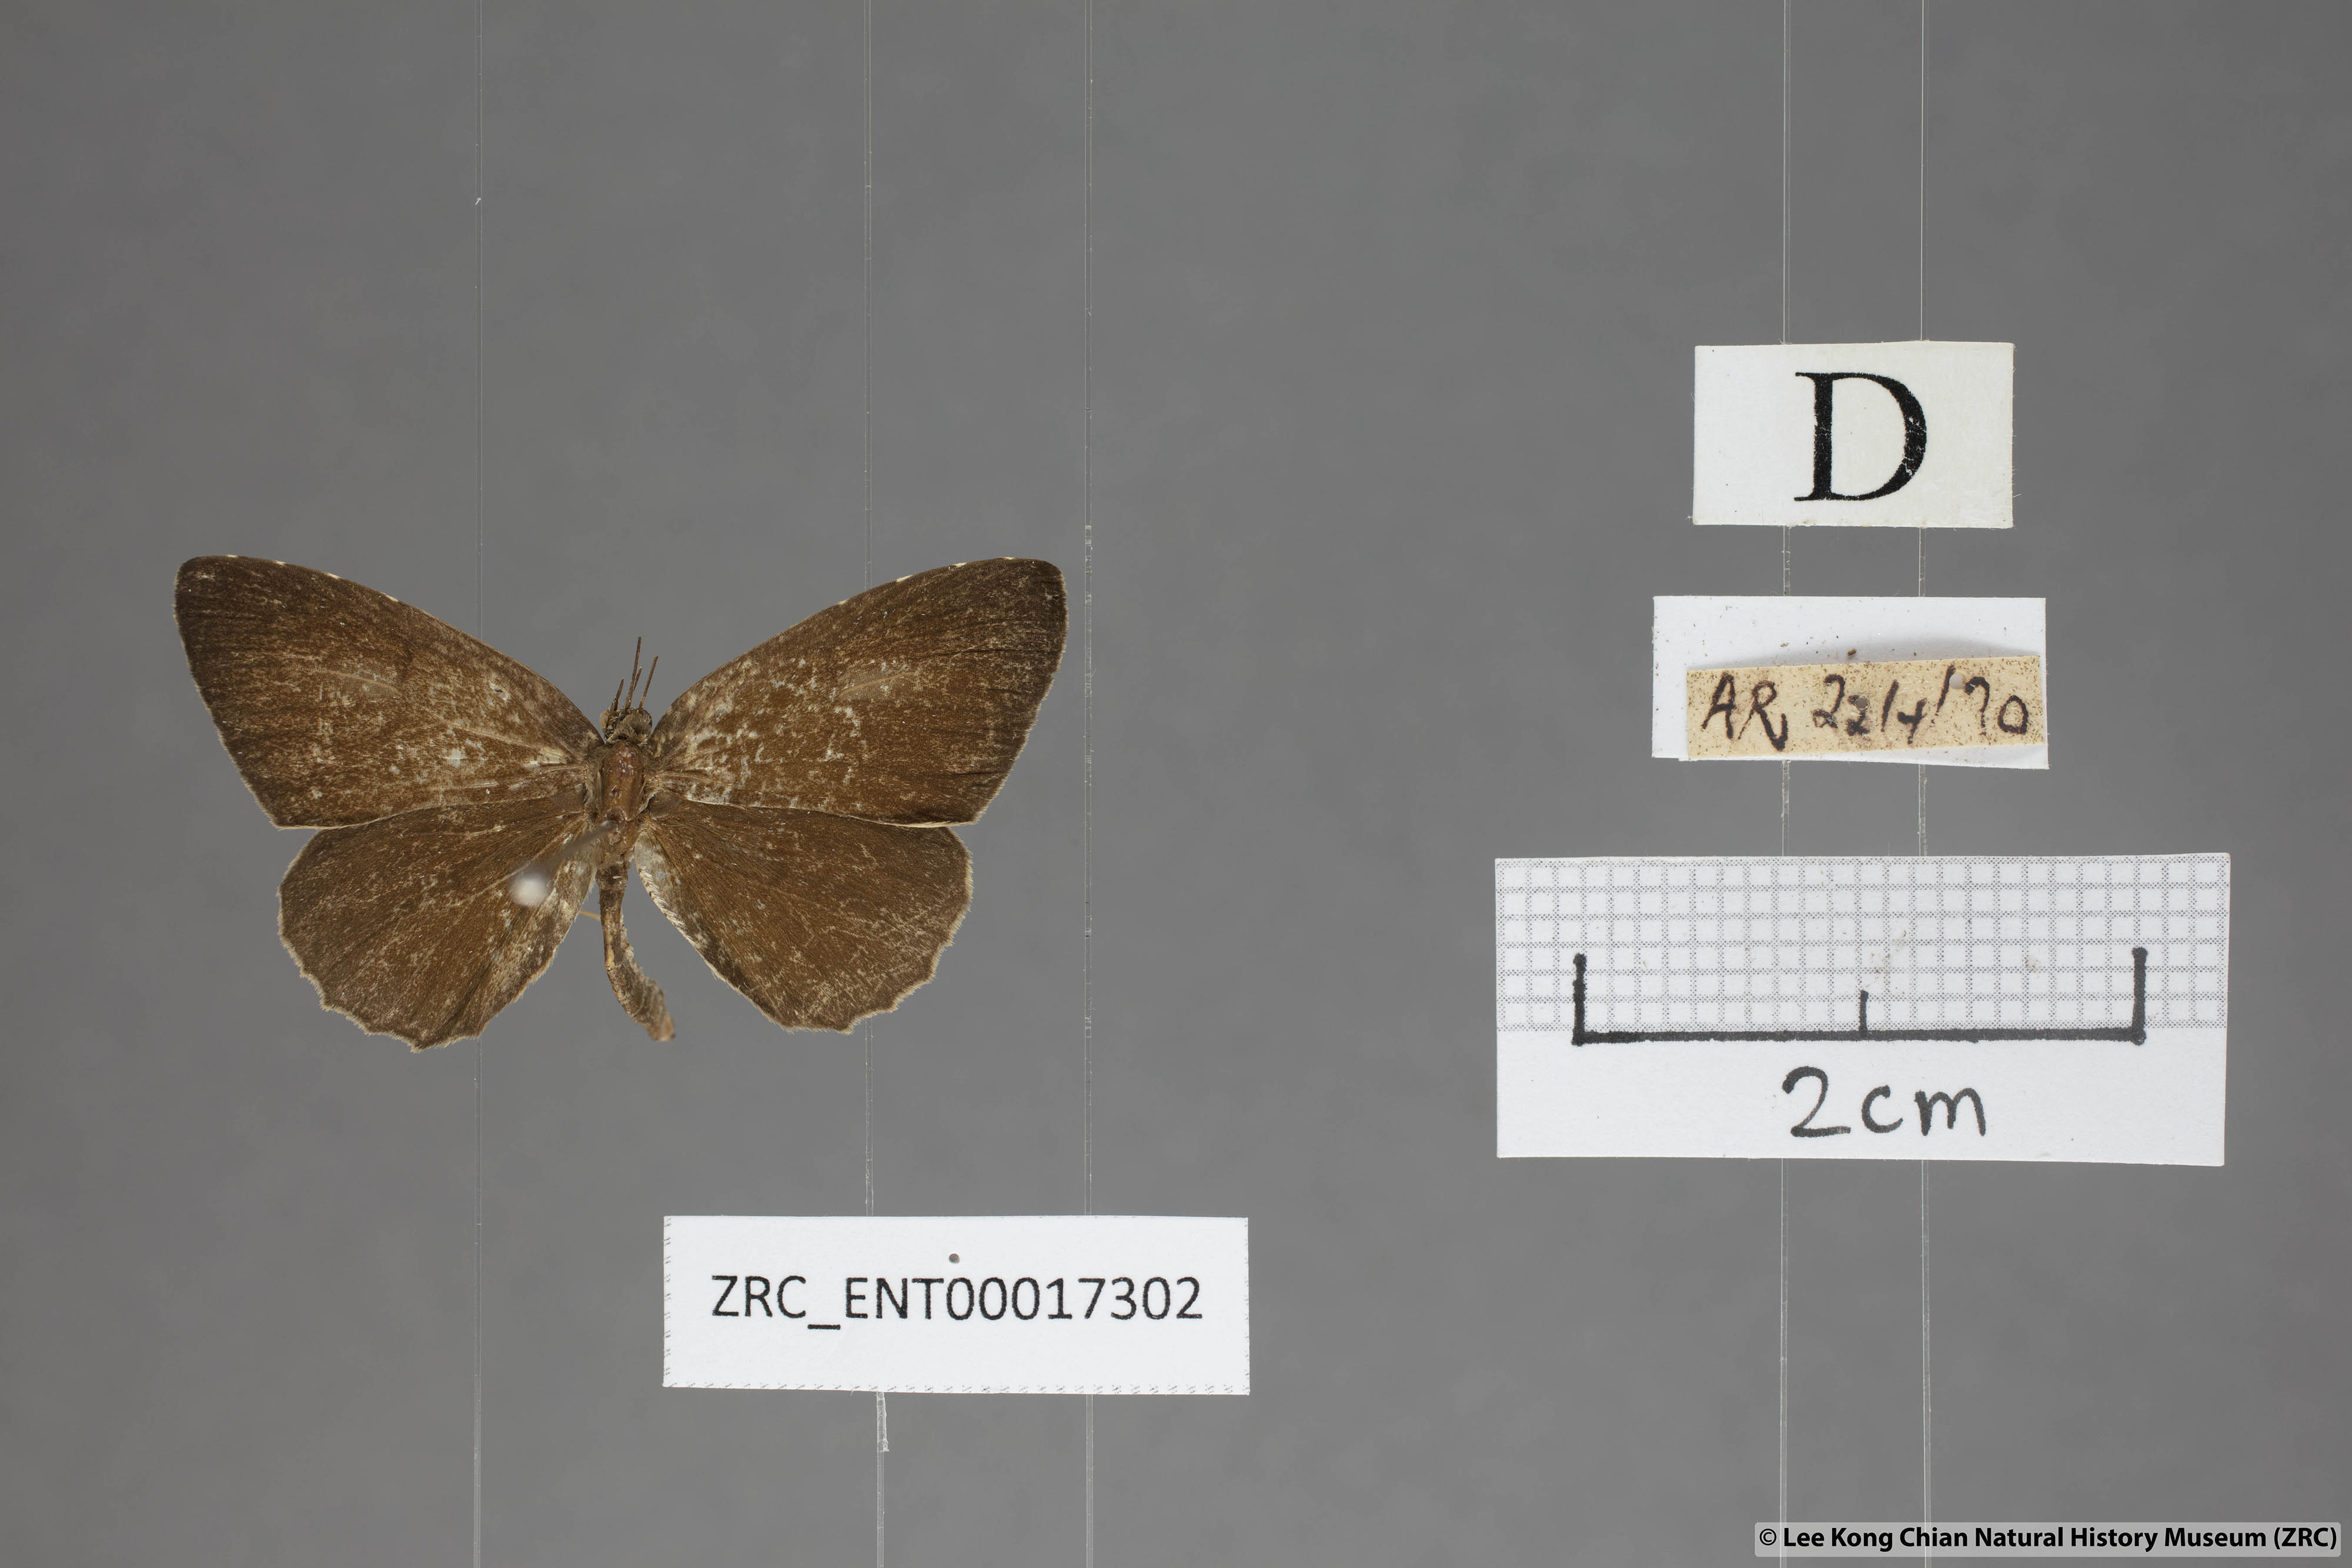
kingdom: Animalia
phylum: Arthropoda
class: Insecta
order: Lepidoptera
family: Lycaenidae
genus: Allotinus
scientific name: Allotinus strigatus
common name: Small malayan darkie
